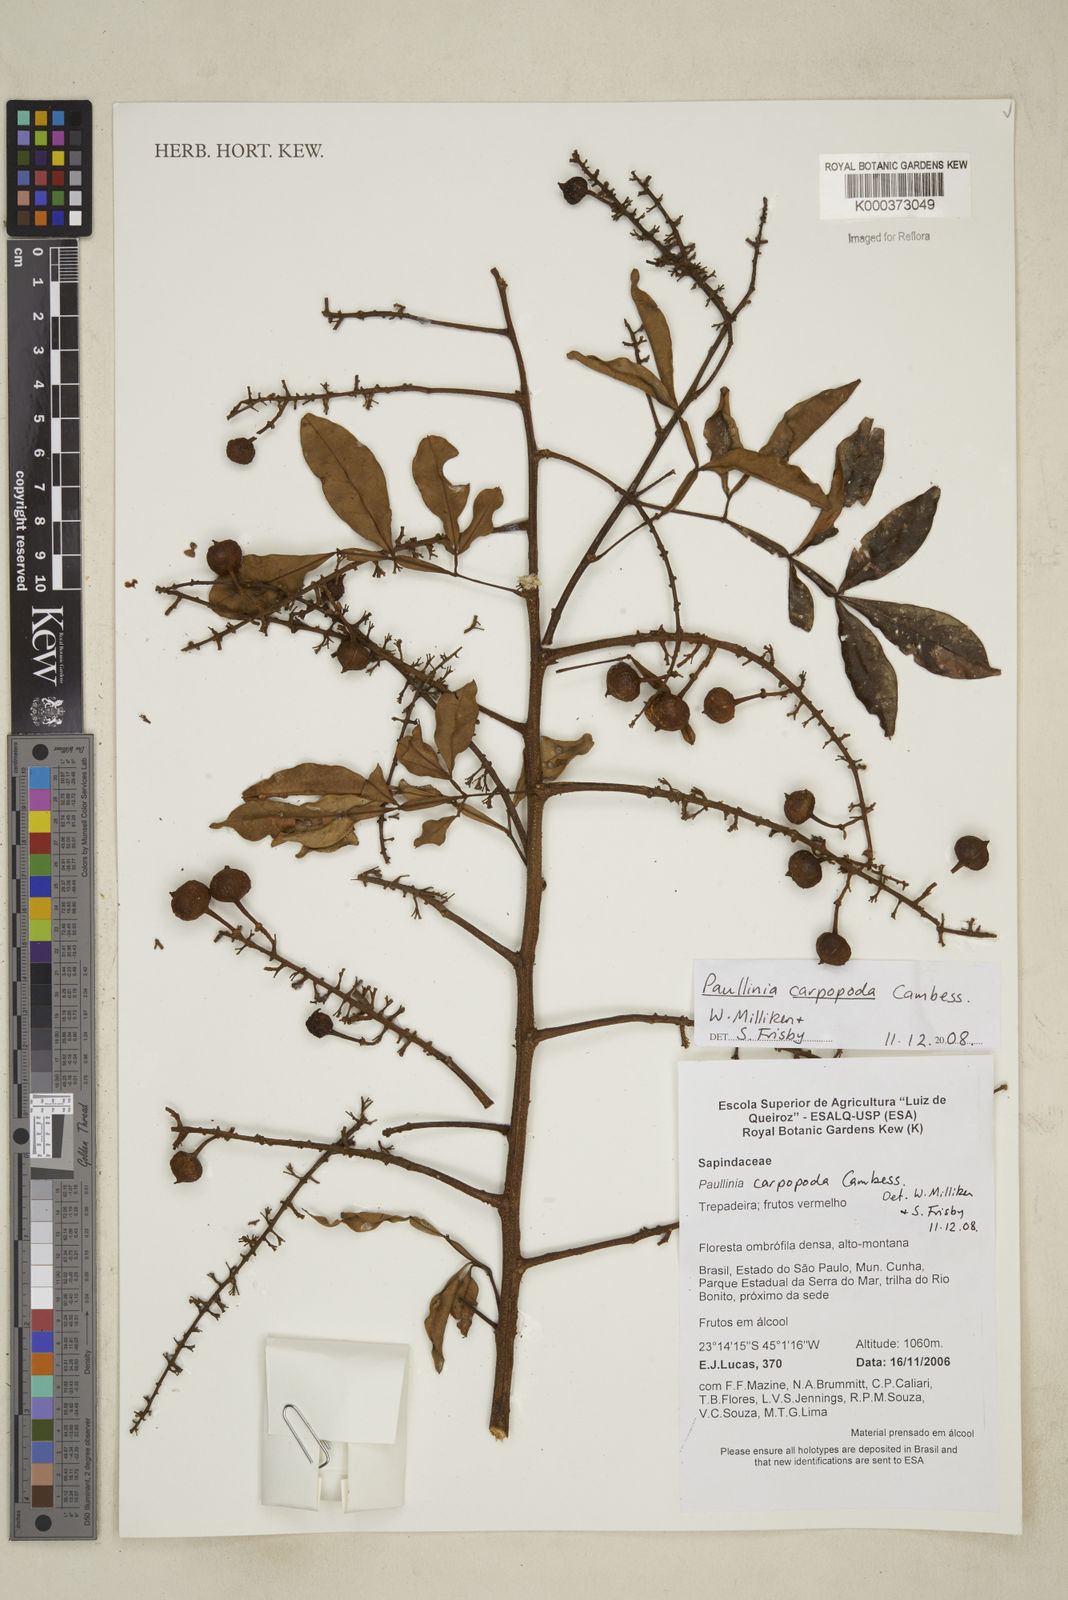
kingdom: Plantae
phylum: Tracheophyta
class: Magnoliopsida
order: Sapindales
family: Sapindaceae
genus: Paullinia
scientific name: Paullinia
